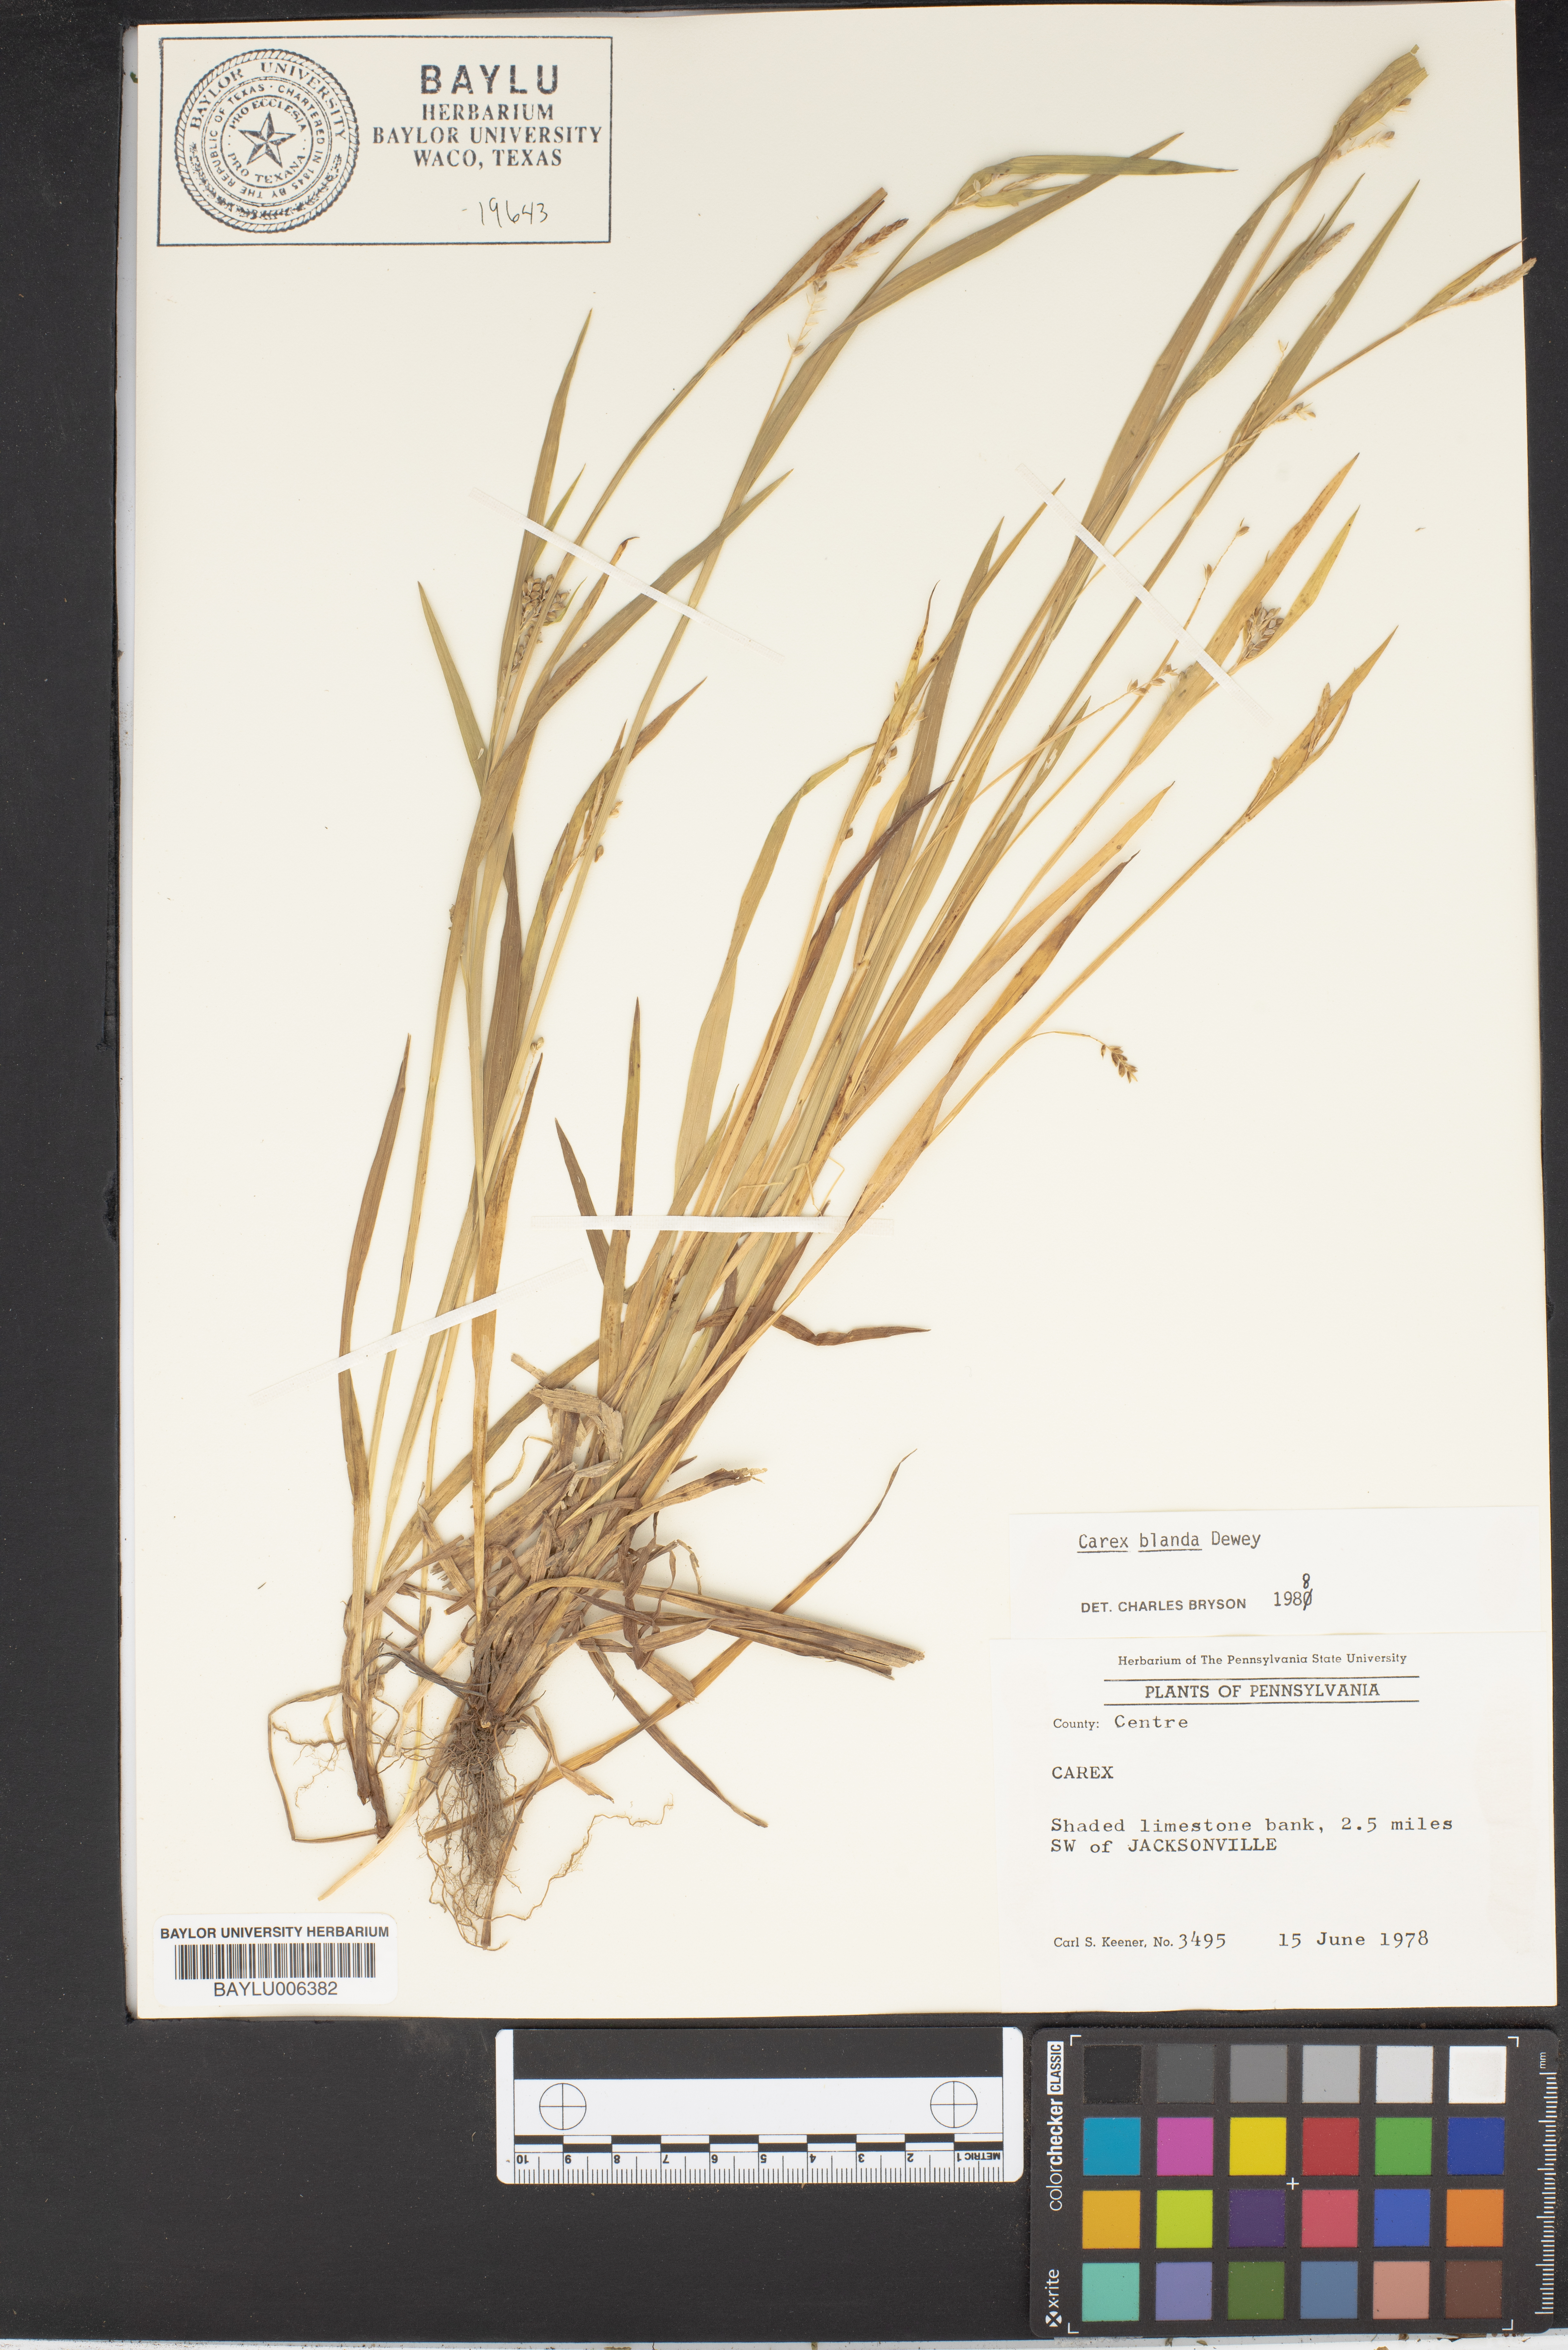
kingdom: Plantae
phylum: Tracheophyta
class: Liliopsida
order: Poales
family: Cyperaceae
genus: Carex
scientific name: Carex
